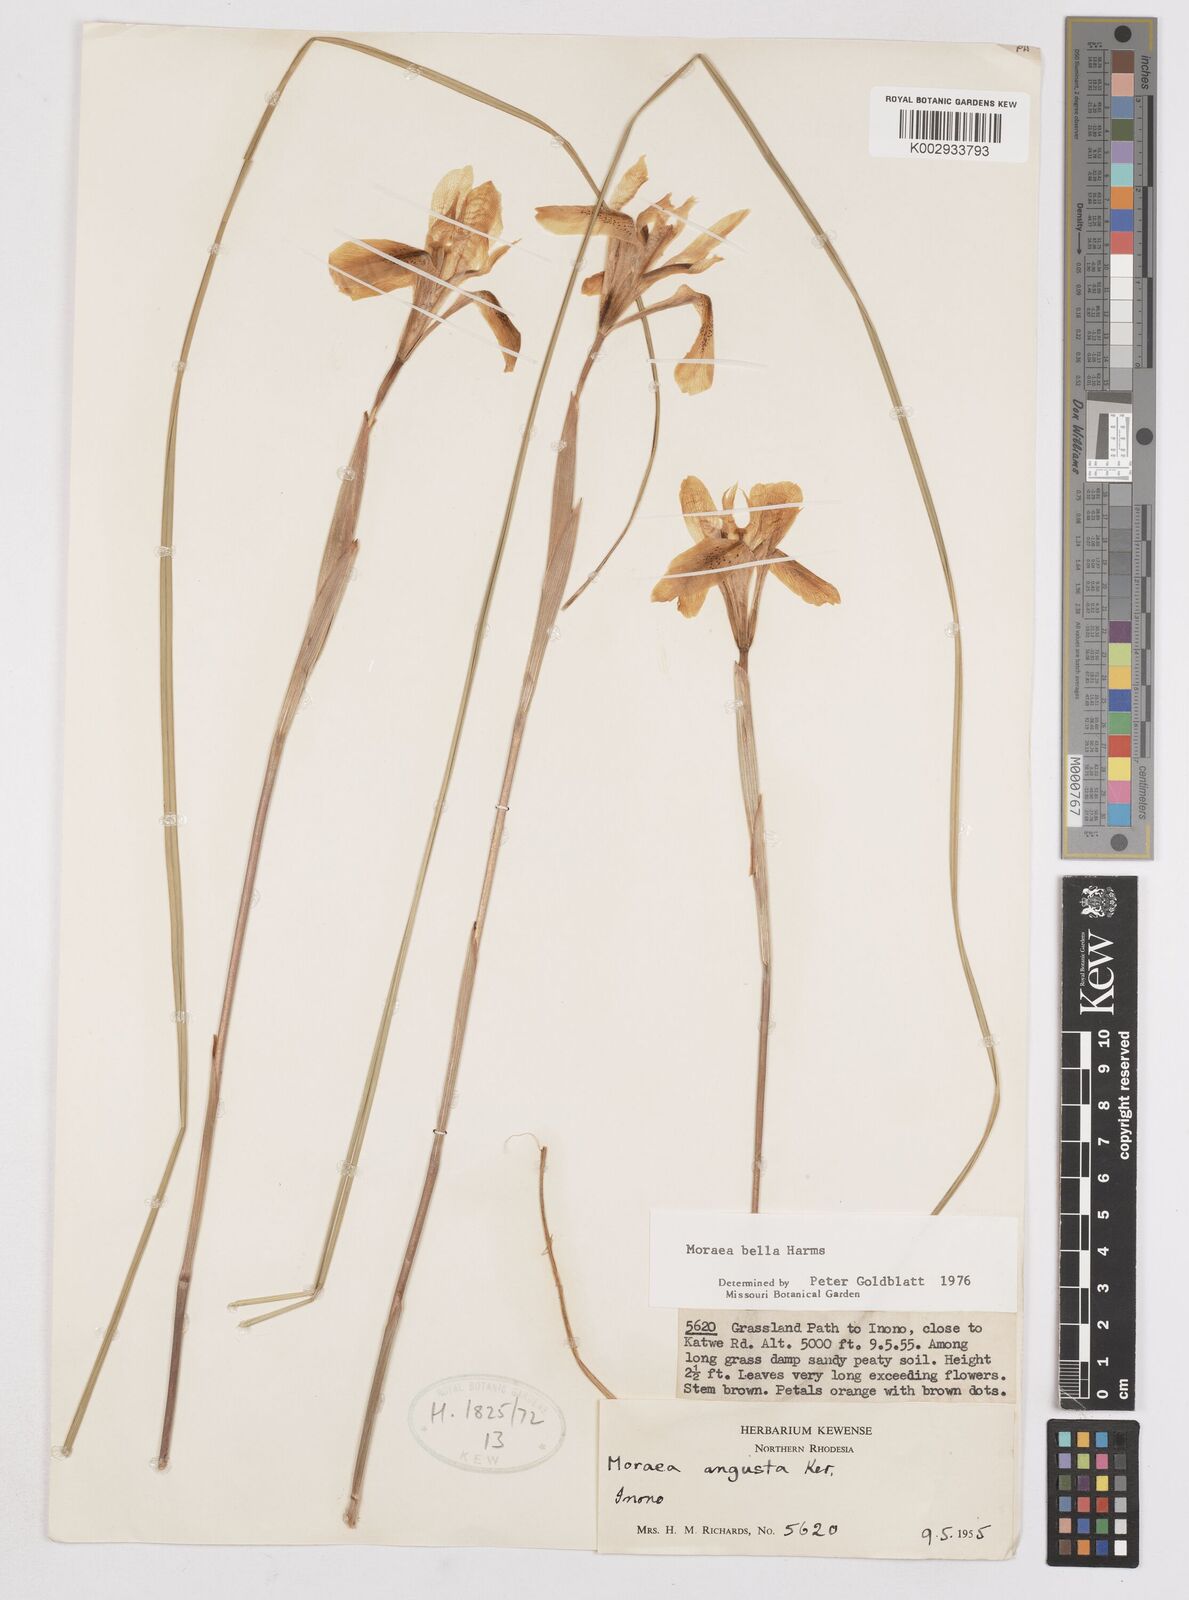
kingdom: Plantae
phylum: Tracheophyta
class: Liliopsida
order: Asparagales
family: Iridaceae
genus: Moraea
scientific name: Moraea bella
